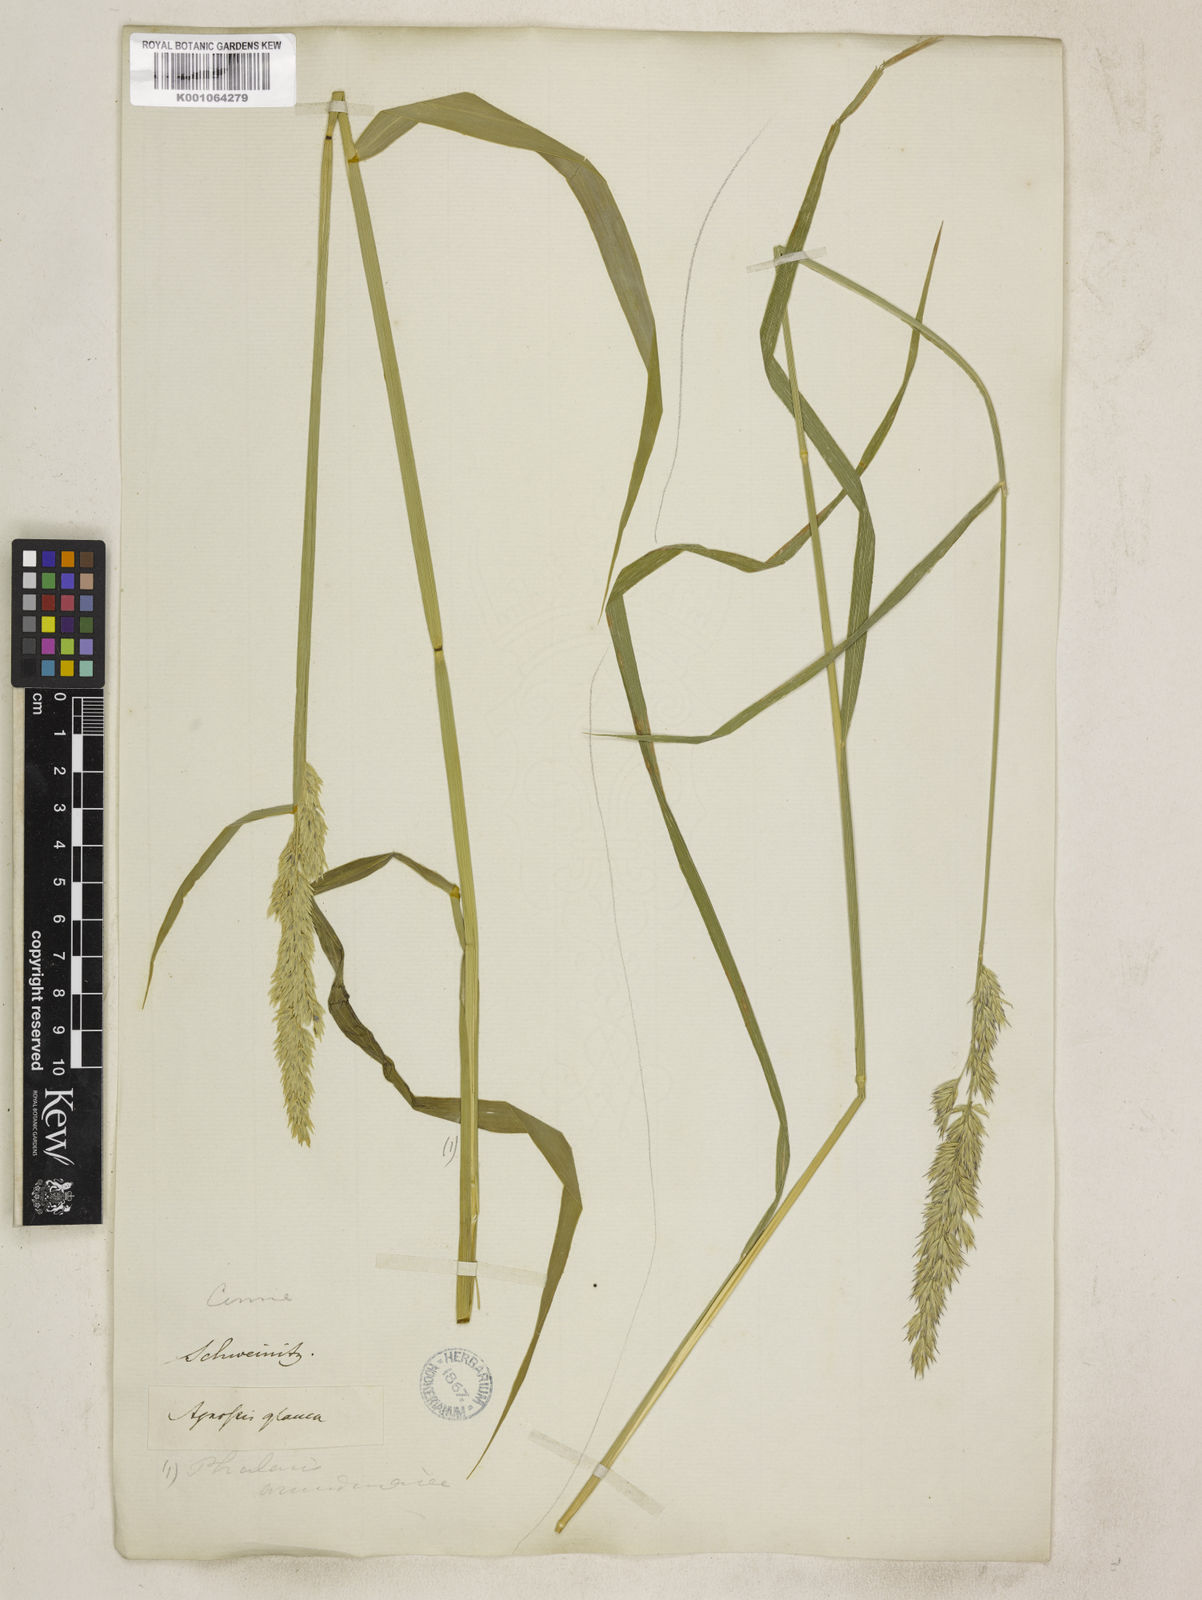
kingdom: Plantae
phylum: Tracheophyta
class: Liliopsida
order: Poales
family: Poaceae
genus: Phalaris
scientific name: Phalaris arundinacea
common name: Reed canary-grass
